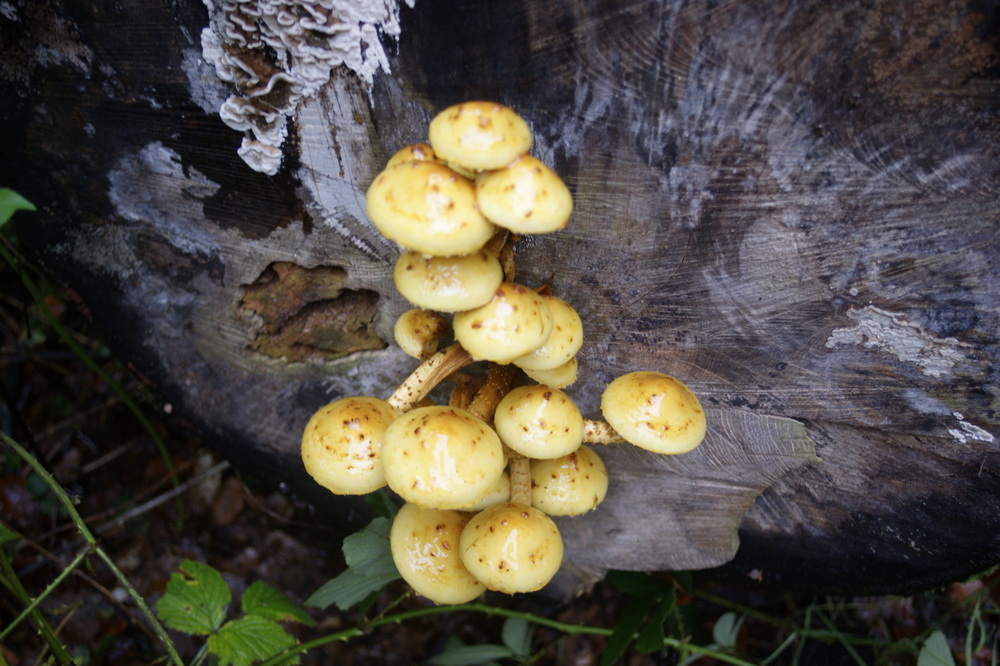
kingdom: Fungi
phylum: Basidiomycota
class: Agaricomycetes
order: Agaricales
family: Strophariaceae
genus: Pholiota
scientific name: Pholiota adiposa
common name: højtsiddende skælhat
